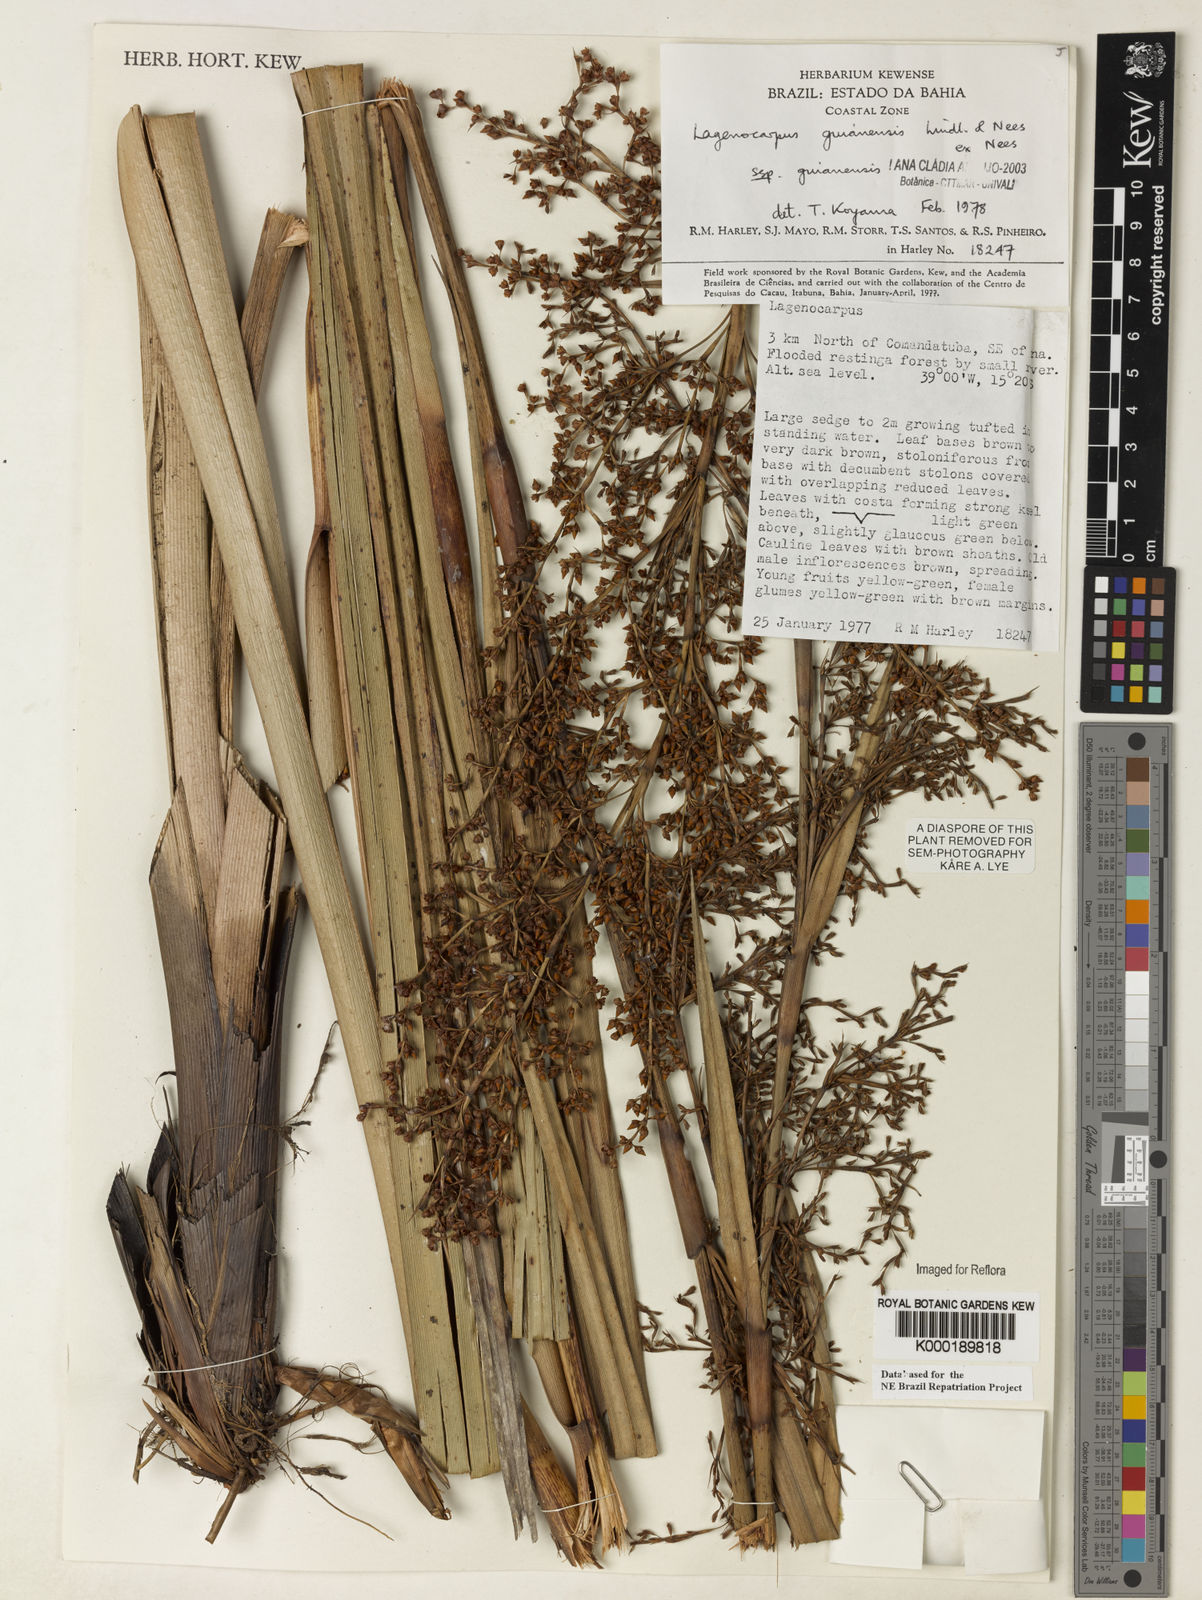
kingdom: Plantae
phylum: Tracheophyta
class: Liliopsida
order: Poales
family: Cyperaceae
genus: Lagenocarpus
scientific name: Lagenocarpus guianensis
